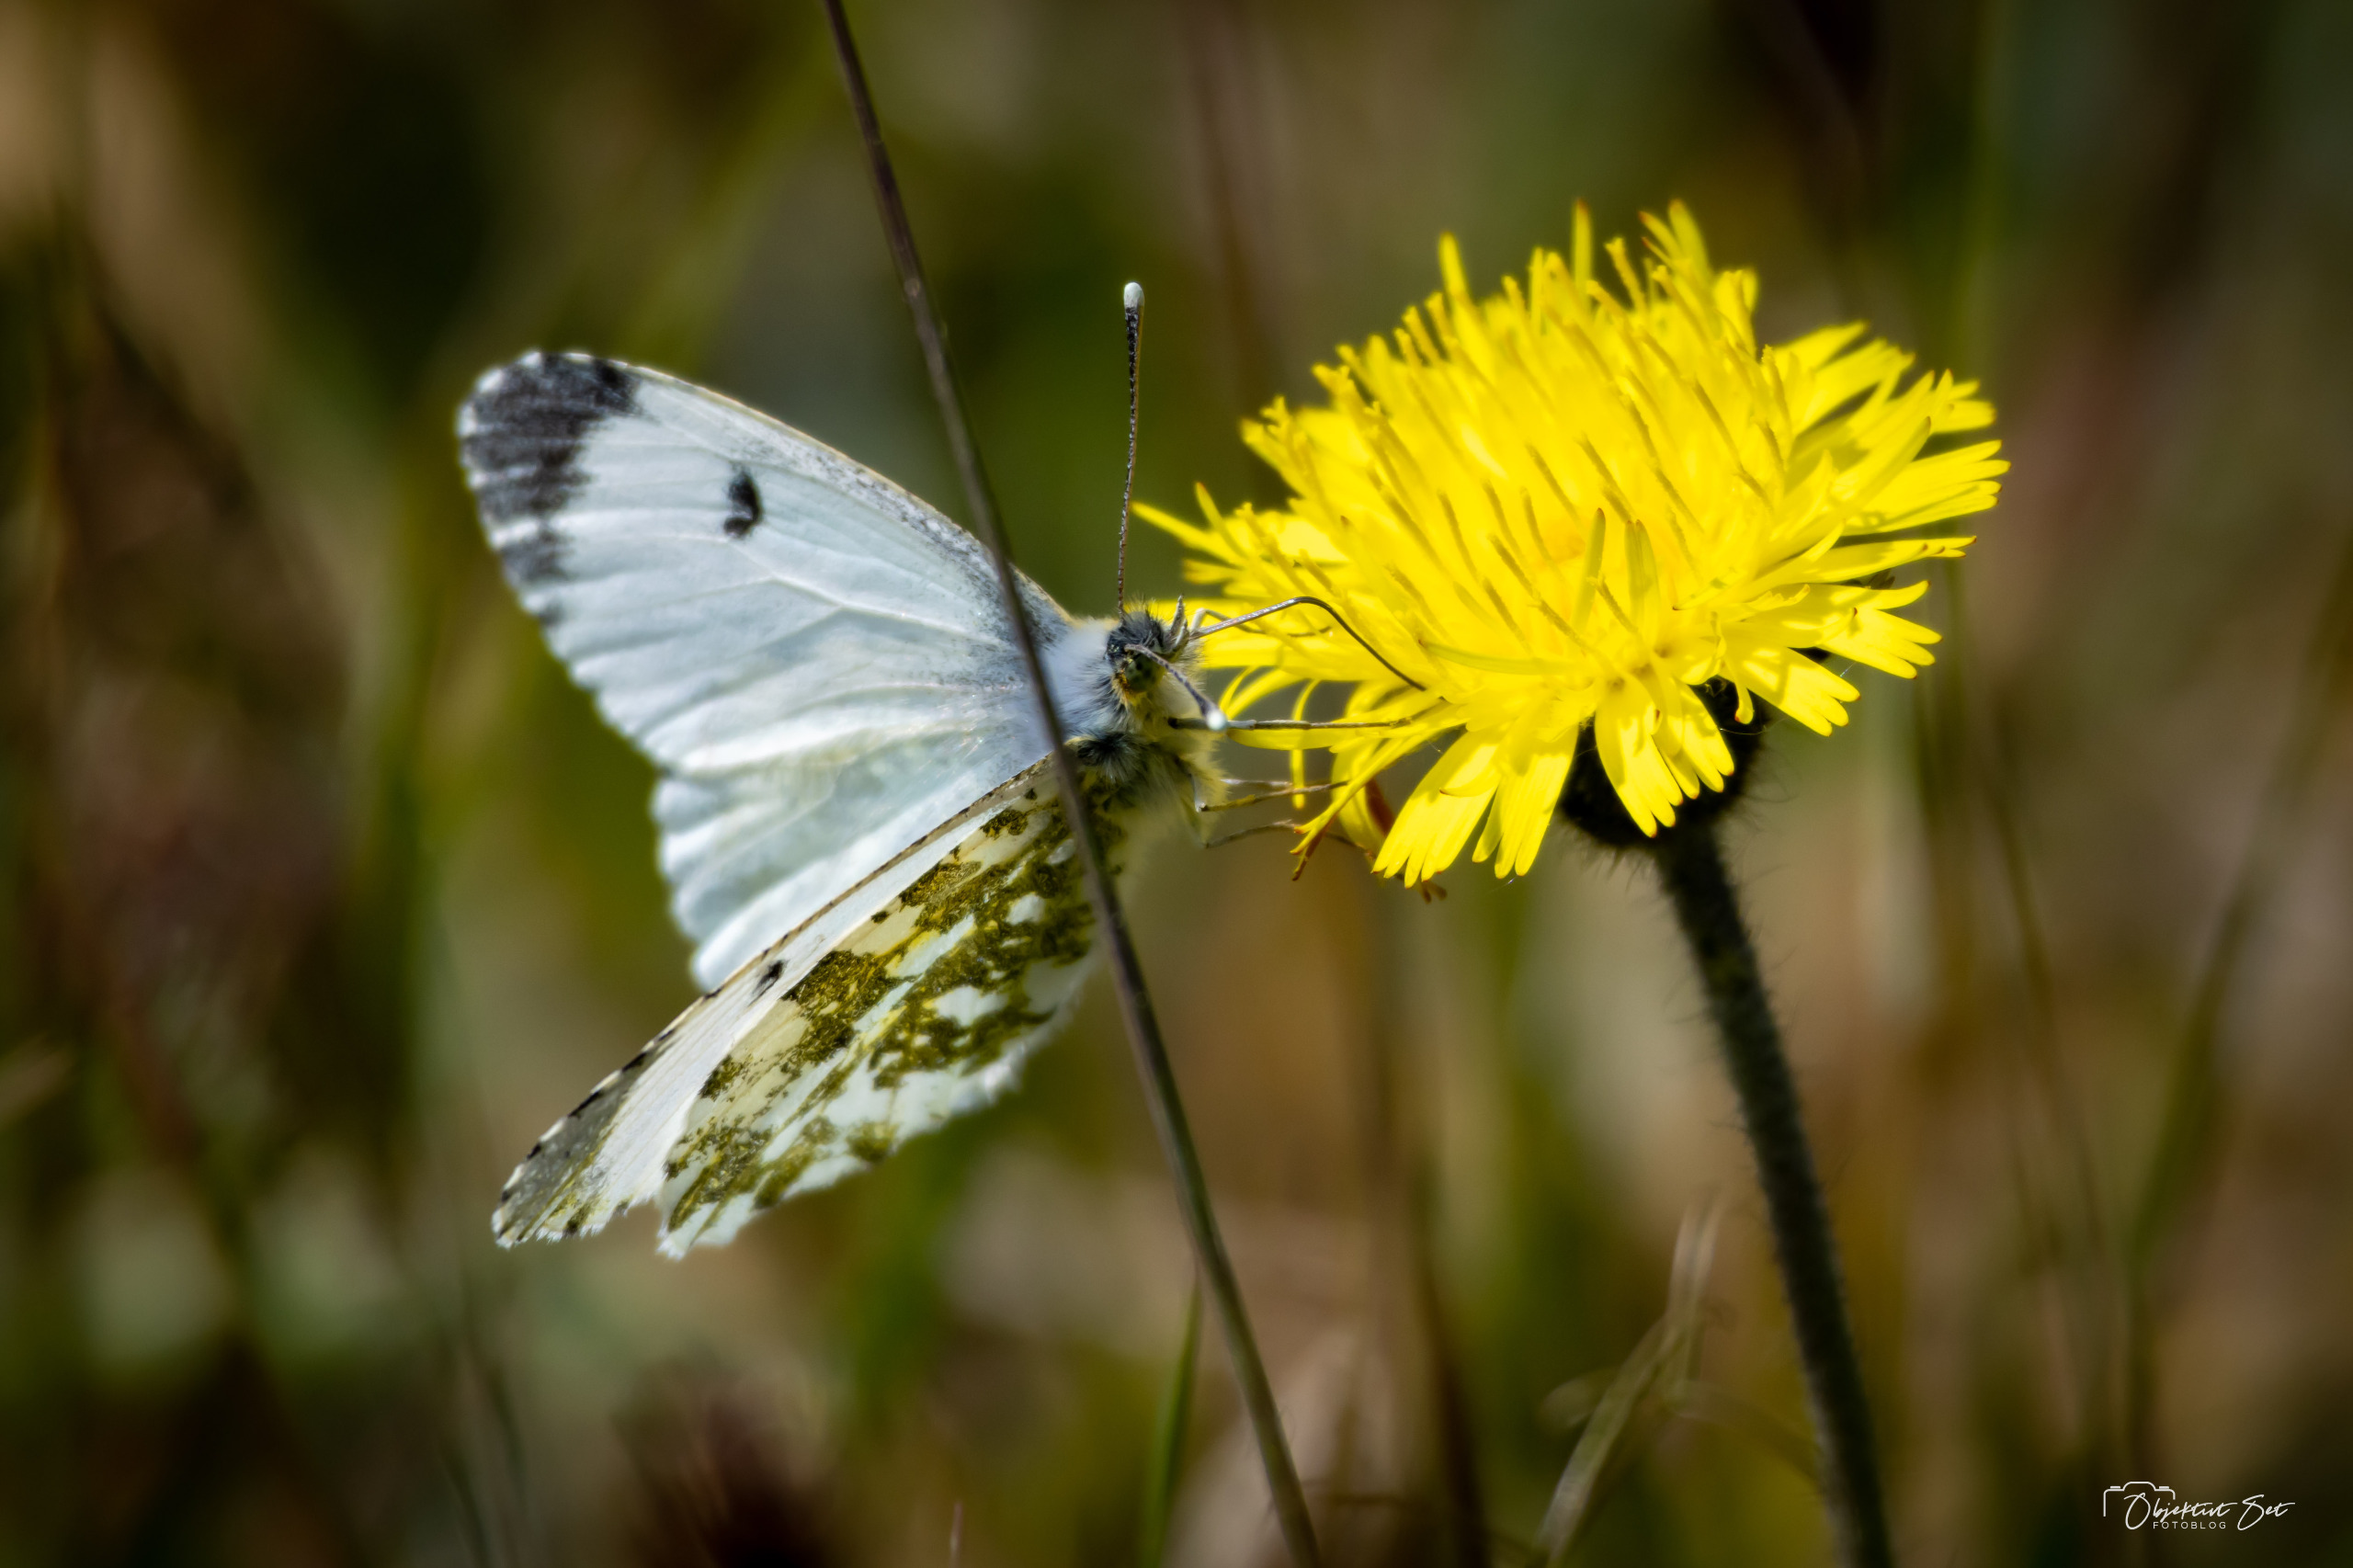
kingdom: Animalia
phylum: Arthropoda
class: Insecta
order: Lepidoptera
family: Pieridae
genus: Anthocharis
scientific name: Anthocharis cardamines
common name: Aurora
